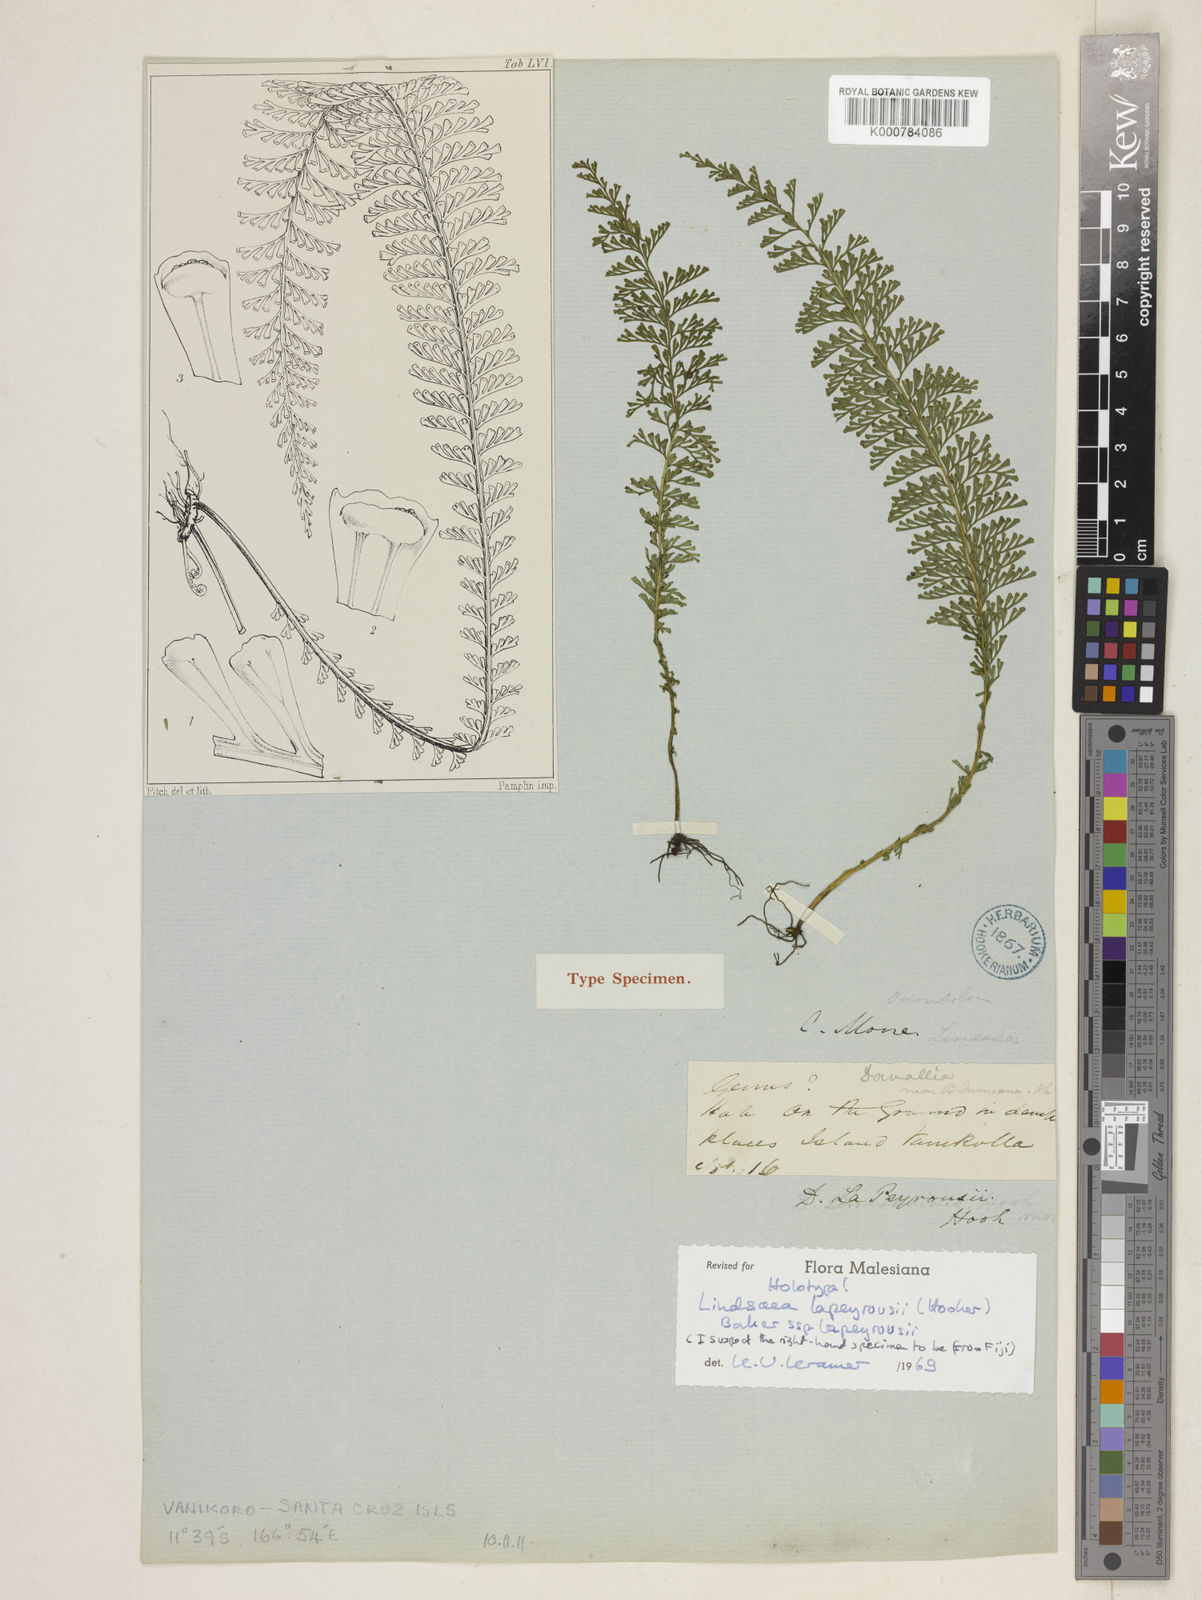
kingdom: Plantae
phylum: Tracheophyta
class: Polypodiopsida
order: Polypodiales
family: Lindsaeaceae
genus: Lindsaea
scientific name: Lindsaea lapeyrousei
